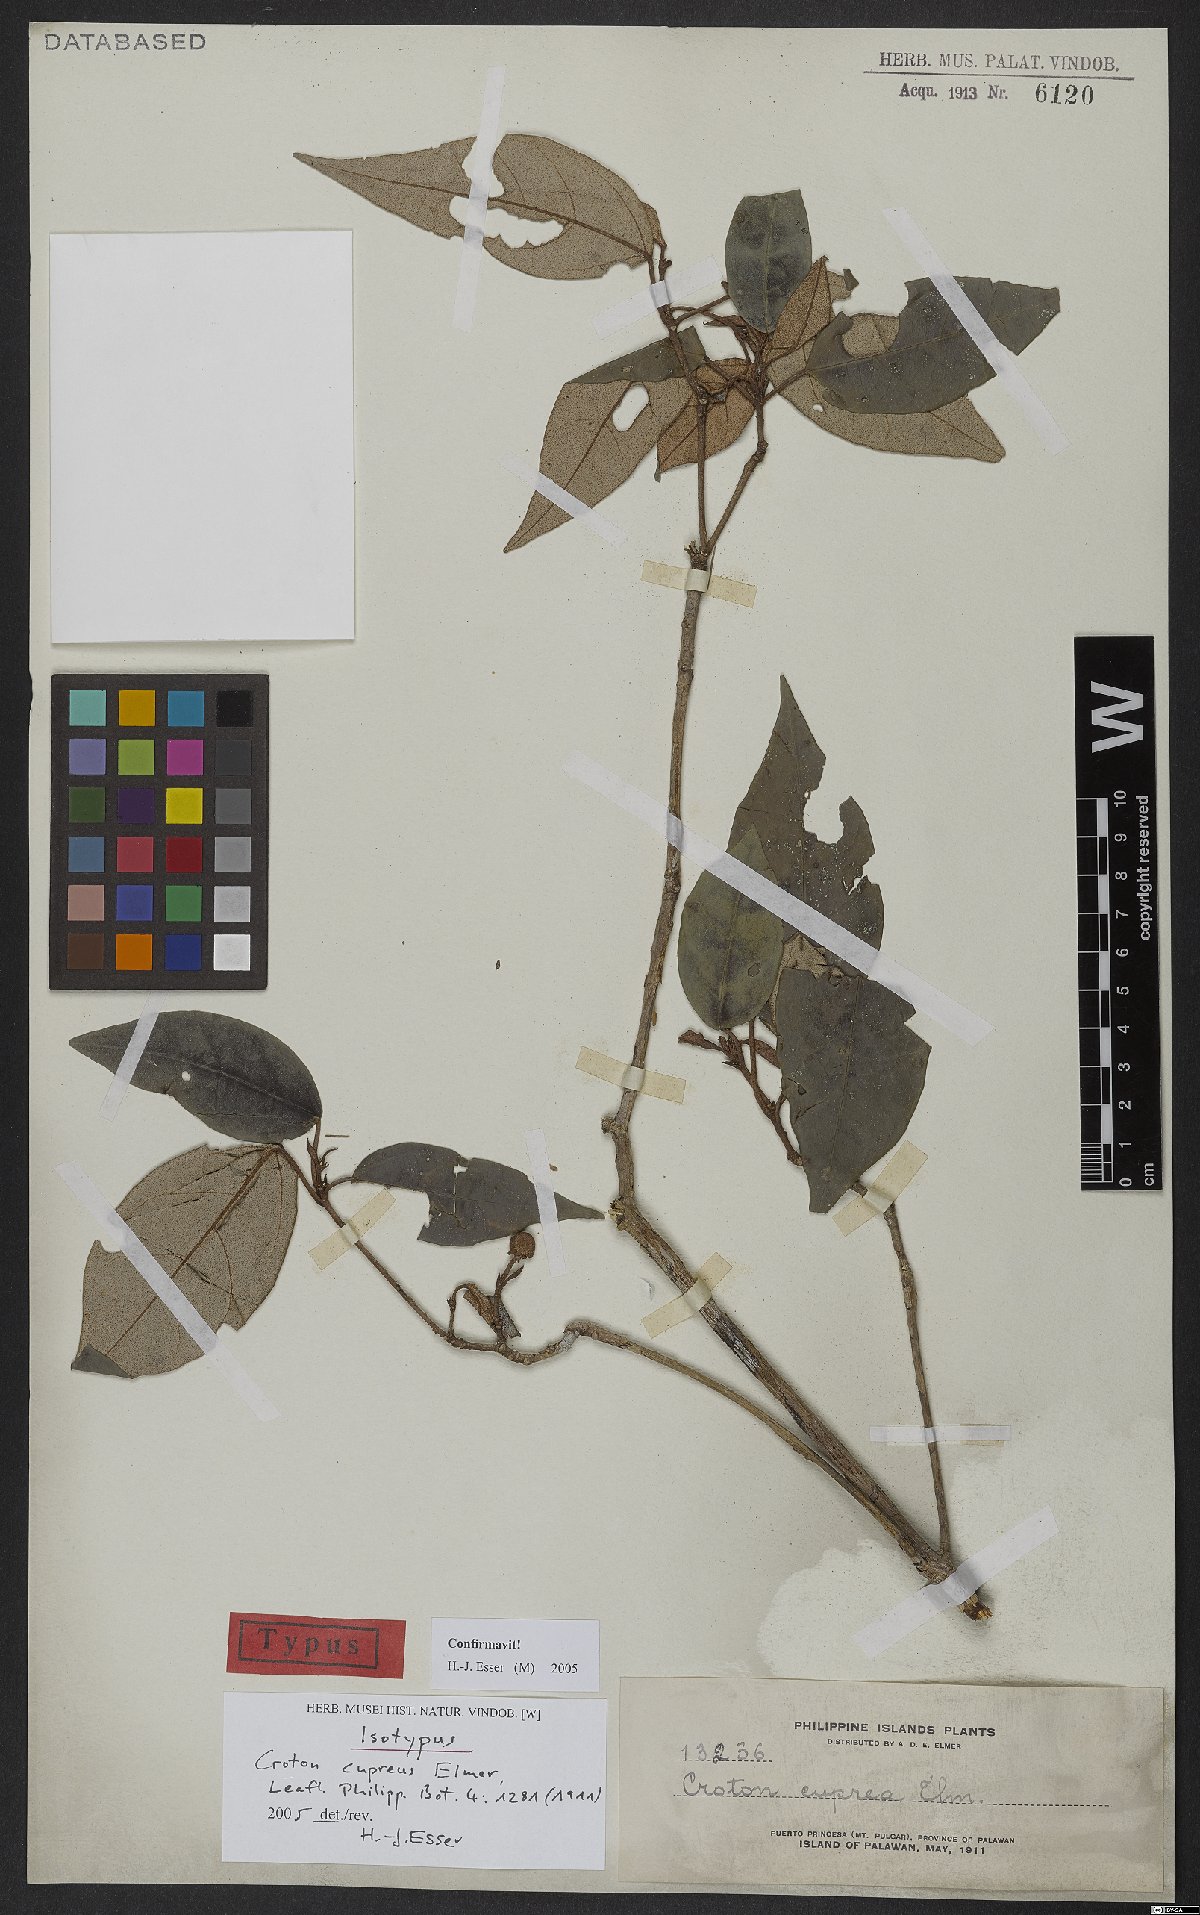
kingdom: Plantae
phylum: Tracheophyta
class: Magnoliopsida
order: Malpighiales
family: Euphorbiaceae
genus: Croton
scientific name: Croton cupreus
